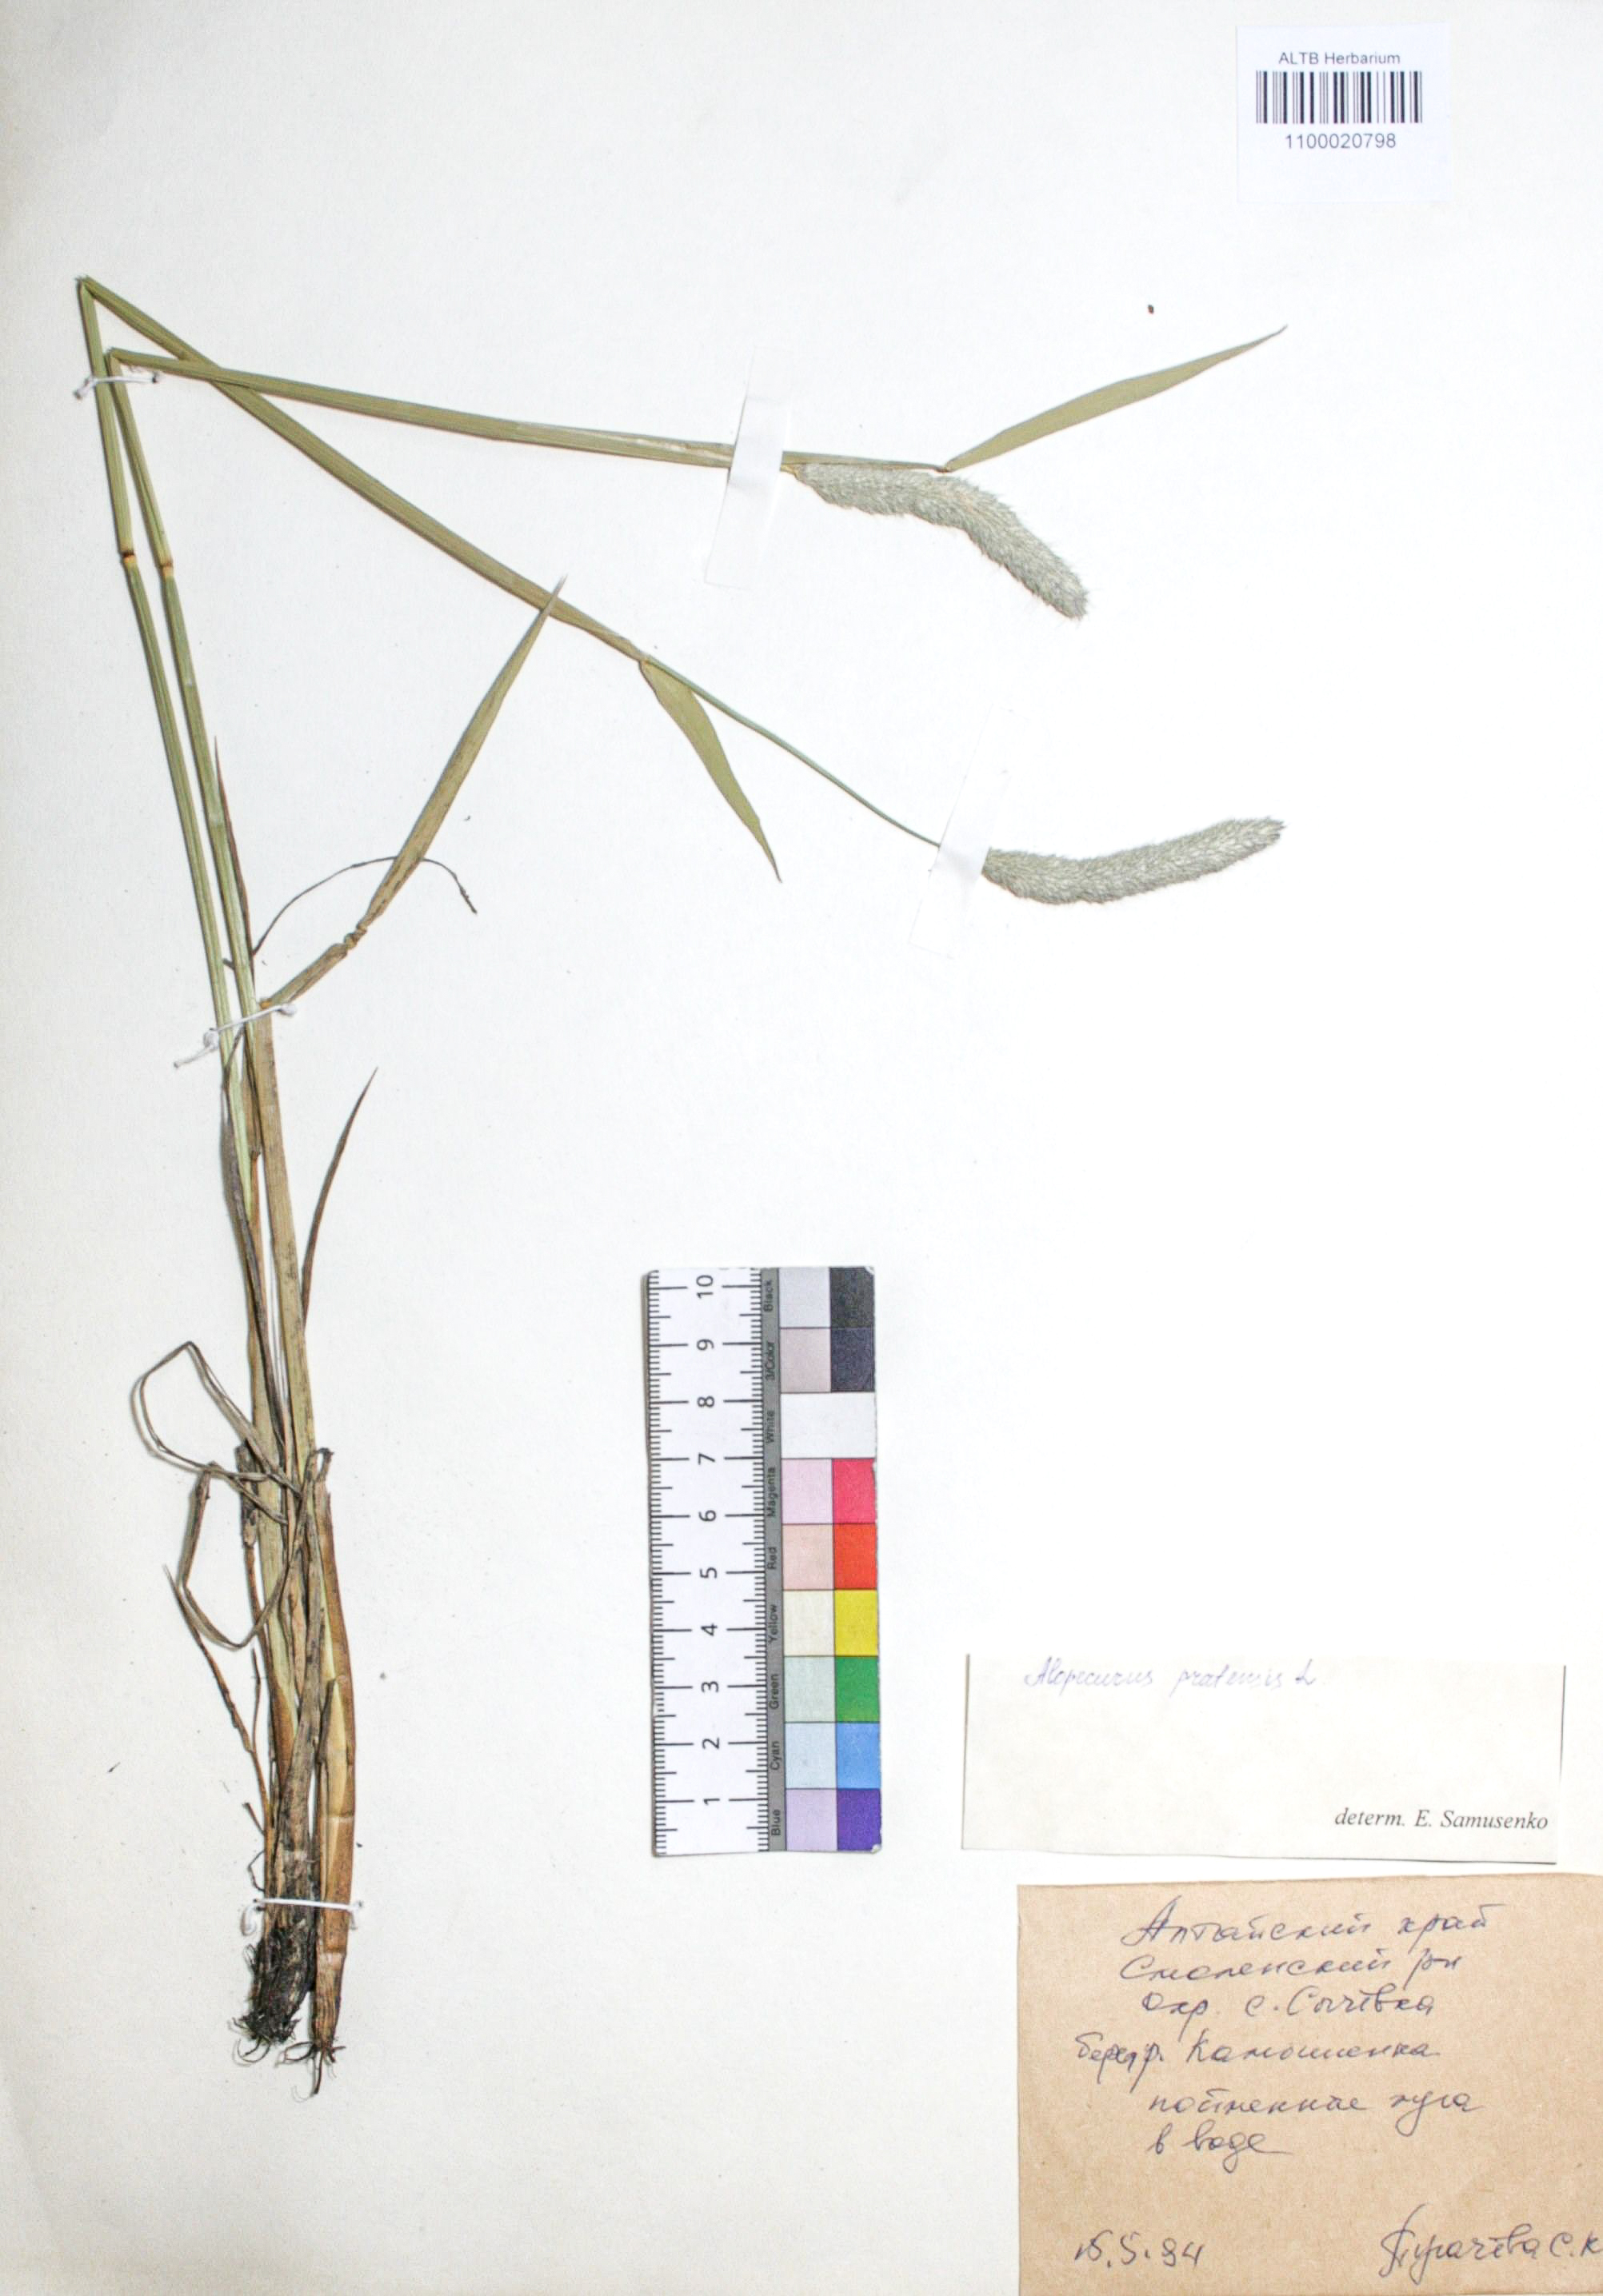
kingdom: Plantae
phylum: Tracheophyta
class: Liliopsida
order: Poales
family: Poaceae
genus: Alopecurus
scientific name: Alopecurus pratensis
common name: Meadow foxtail
